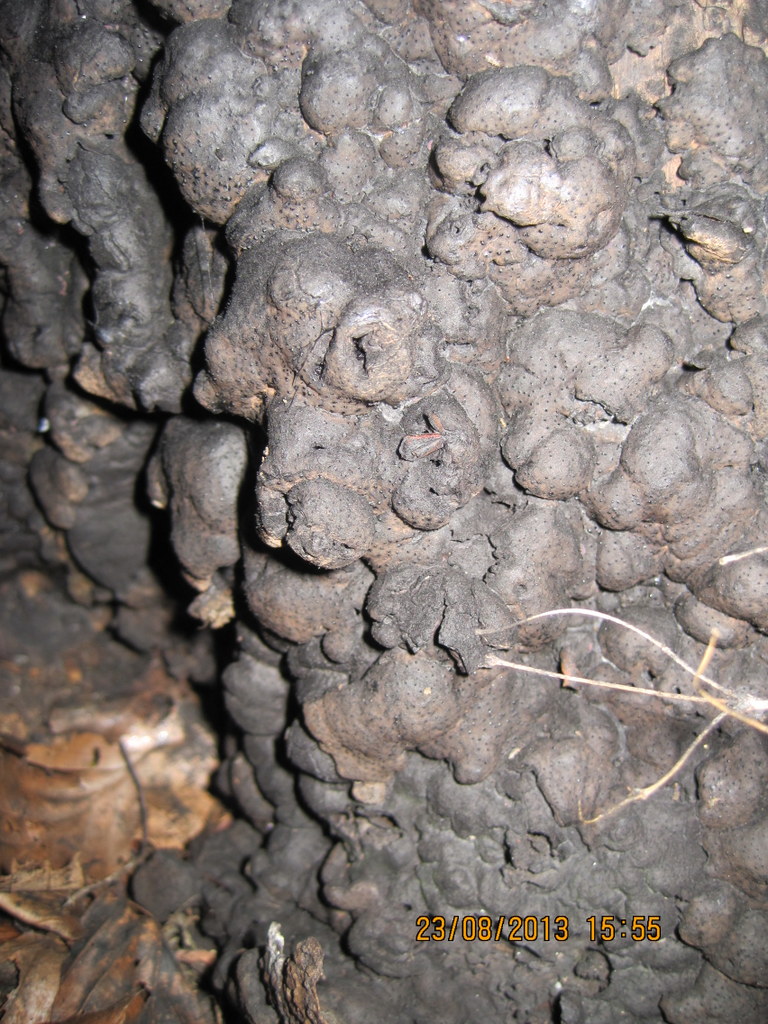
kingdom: Fungi
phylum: Ascomycota
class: Sordariomycetes
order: Xylariales
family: Xylariaceae
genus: Kretzschmaria
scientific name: Kretzschmaria deusta
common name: stor kulsvamp
